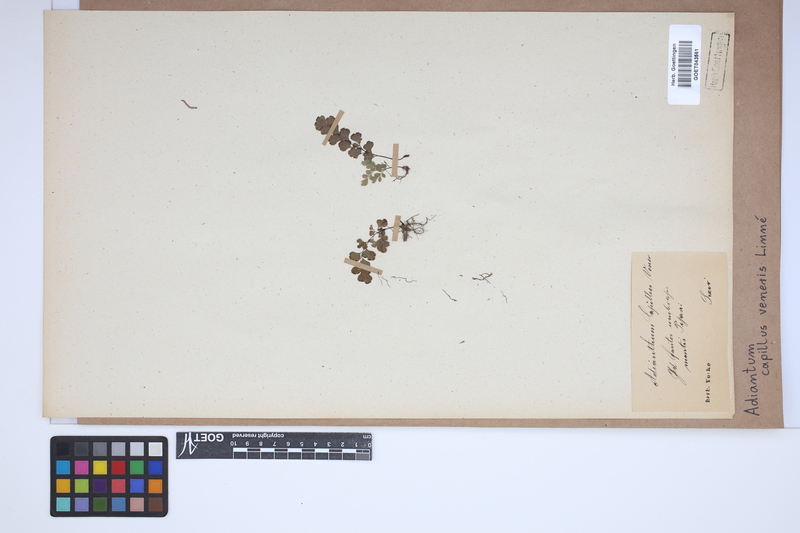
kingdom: Plantae
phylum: Tracheophyta
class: Polypodiopsida
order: Polypodiales
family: Pteridaceae
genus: Adiantum
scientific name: Adiantum capillus-veneris
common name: Maidenhair fern
